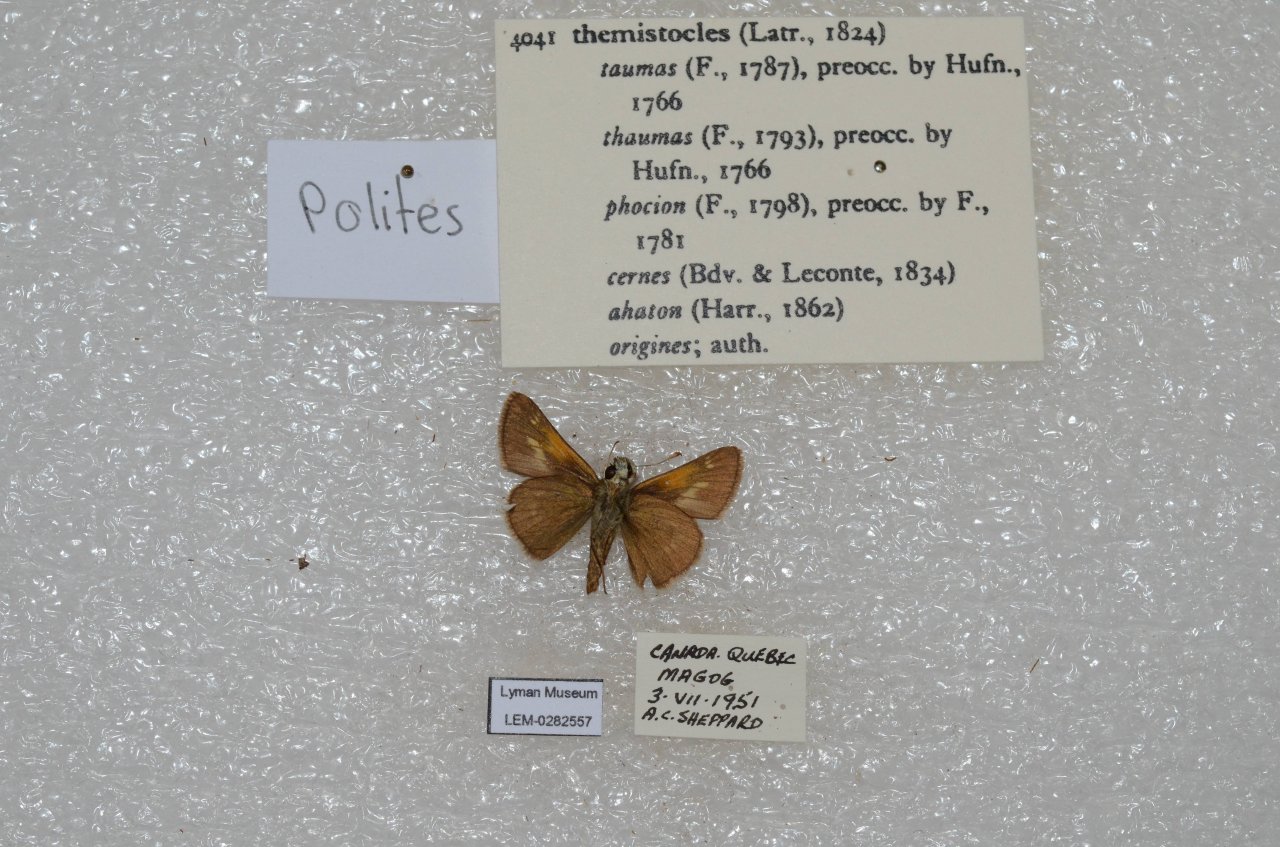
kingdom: Animalia
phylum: Arthropoda
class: Insecta
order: Lepidoptera
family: Hesperiidae
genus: Polites
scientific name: Polites themistocles
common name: Tawny-edged Skipper
